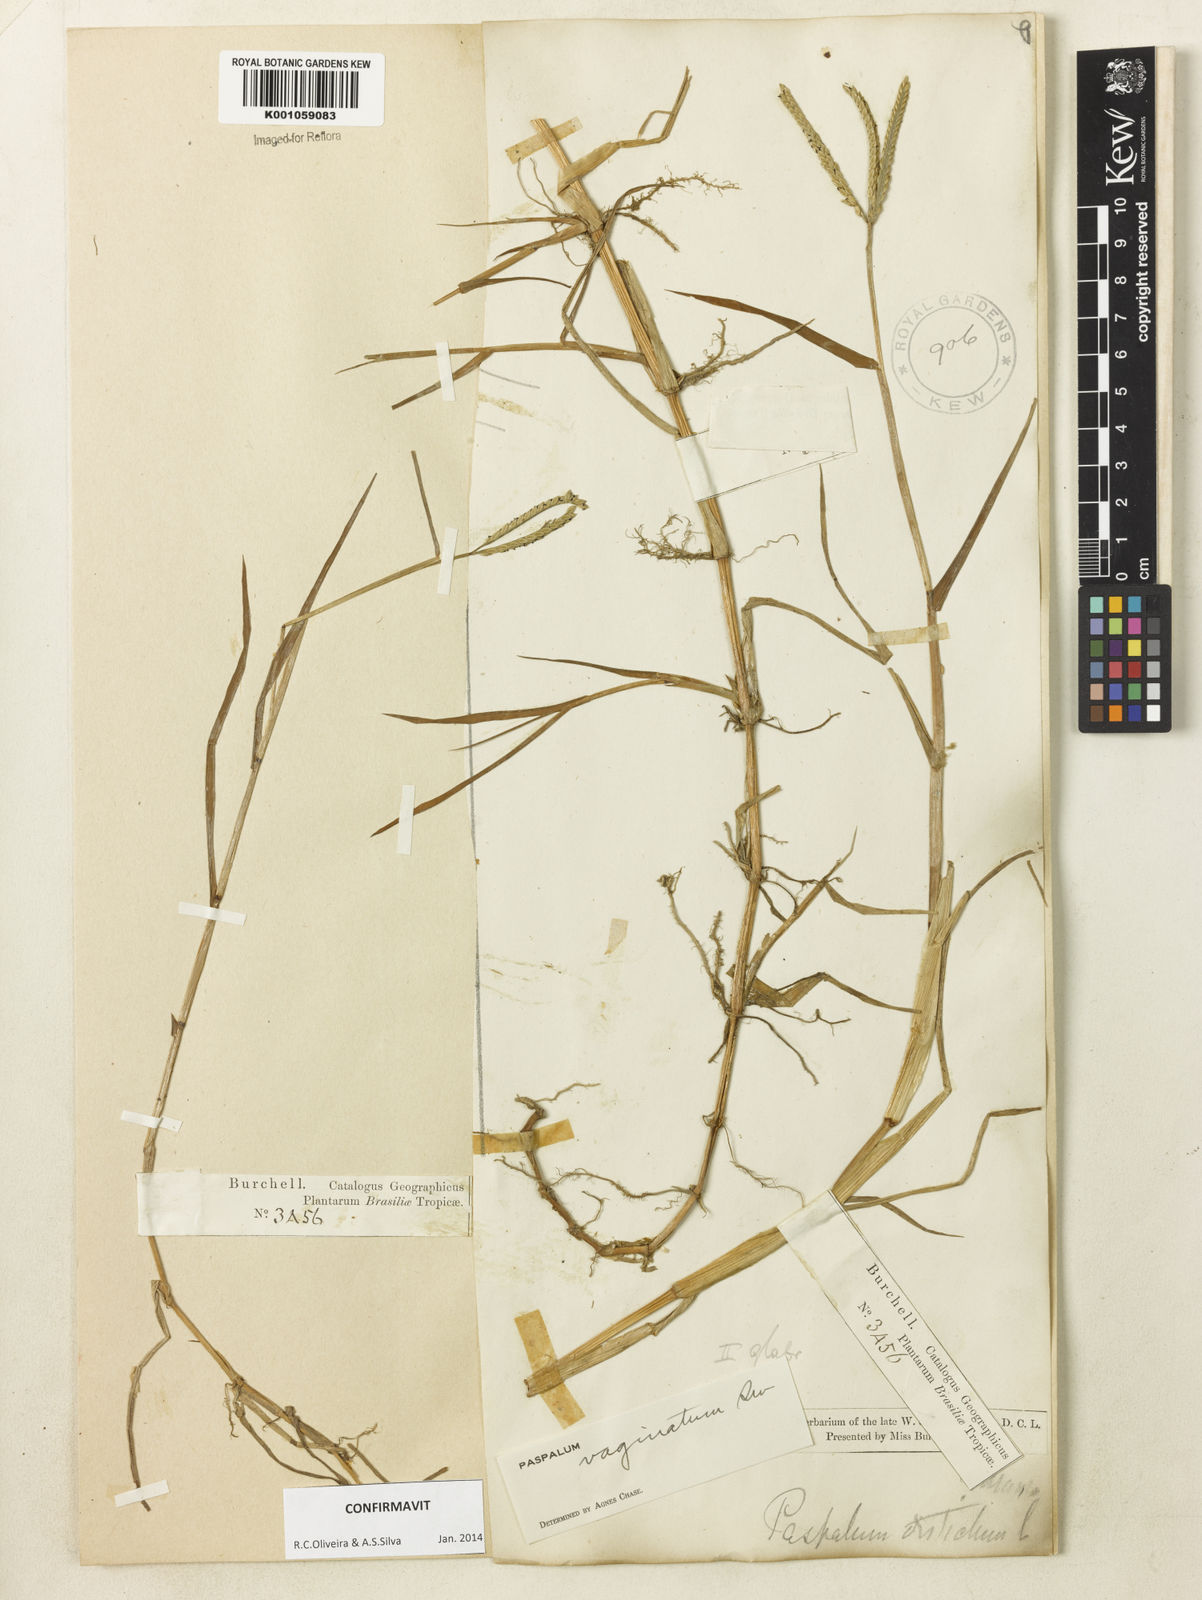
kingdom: Plantae
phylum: Tracheophyta
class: Liliopsida
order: Poales
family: Poaceae
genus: Paspalum
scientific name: Paspalum vaginatum
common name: Seashore paspalum
